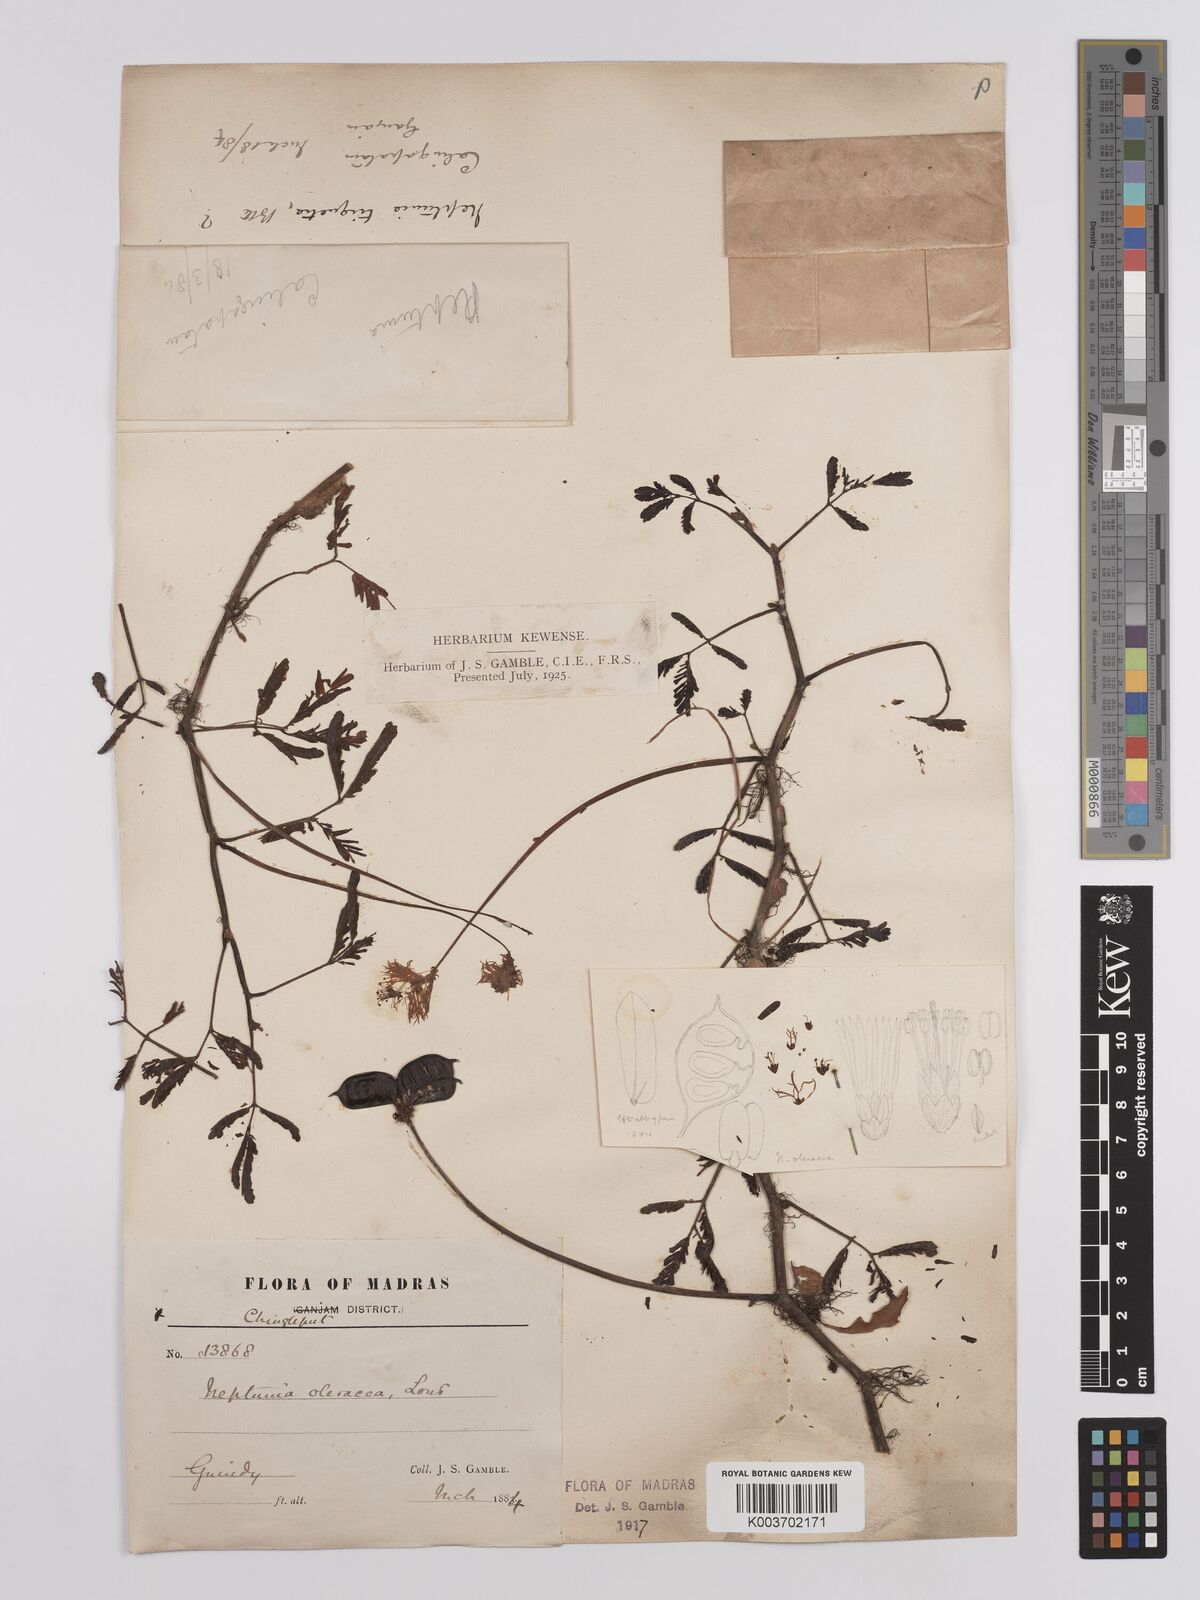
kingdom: Plantae
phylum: Tracheophyta
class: Magnoliopsida
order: Fabales
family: Fabaceae
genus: Neptunia
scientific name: Neptunia prostrata
